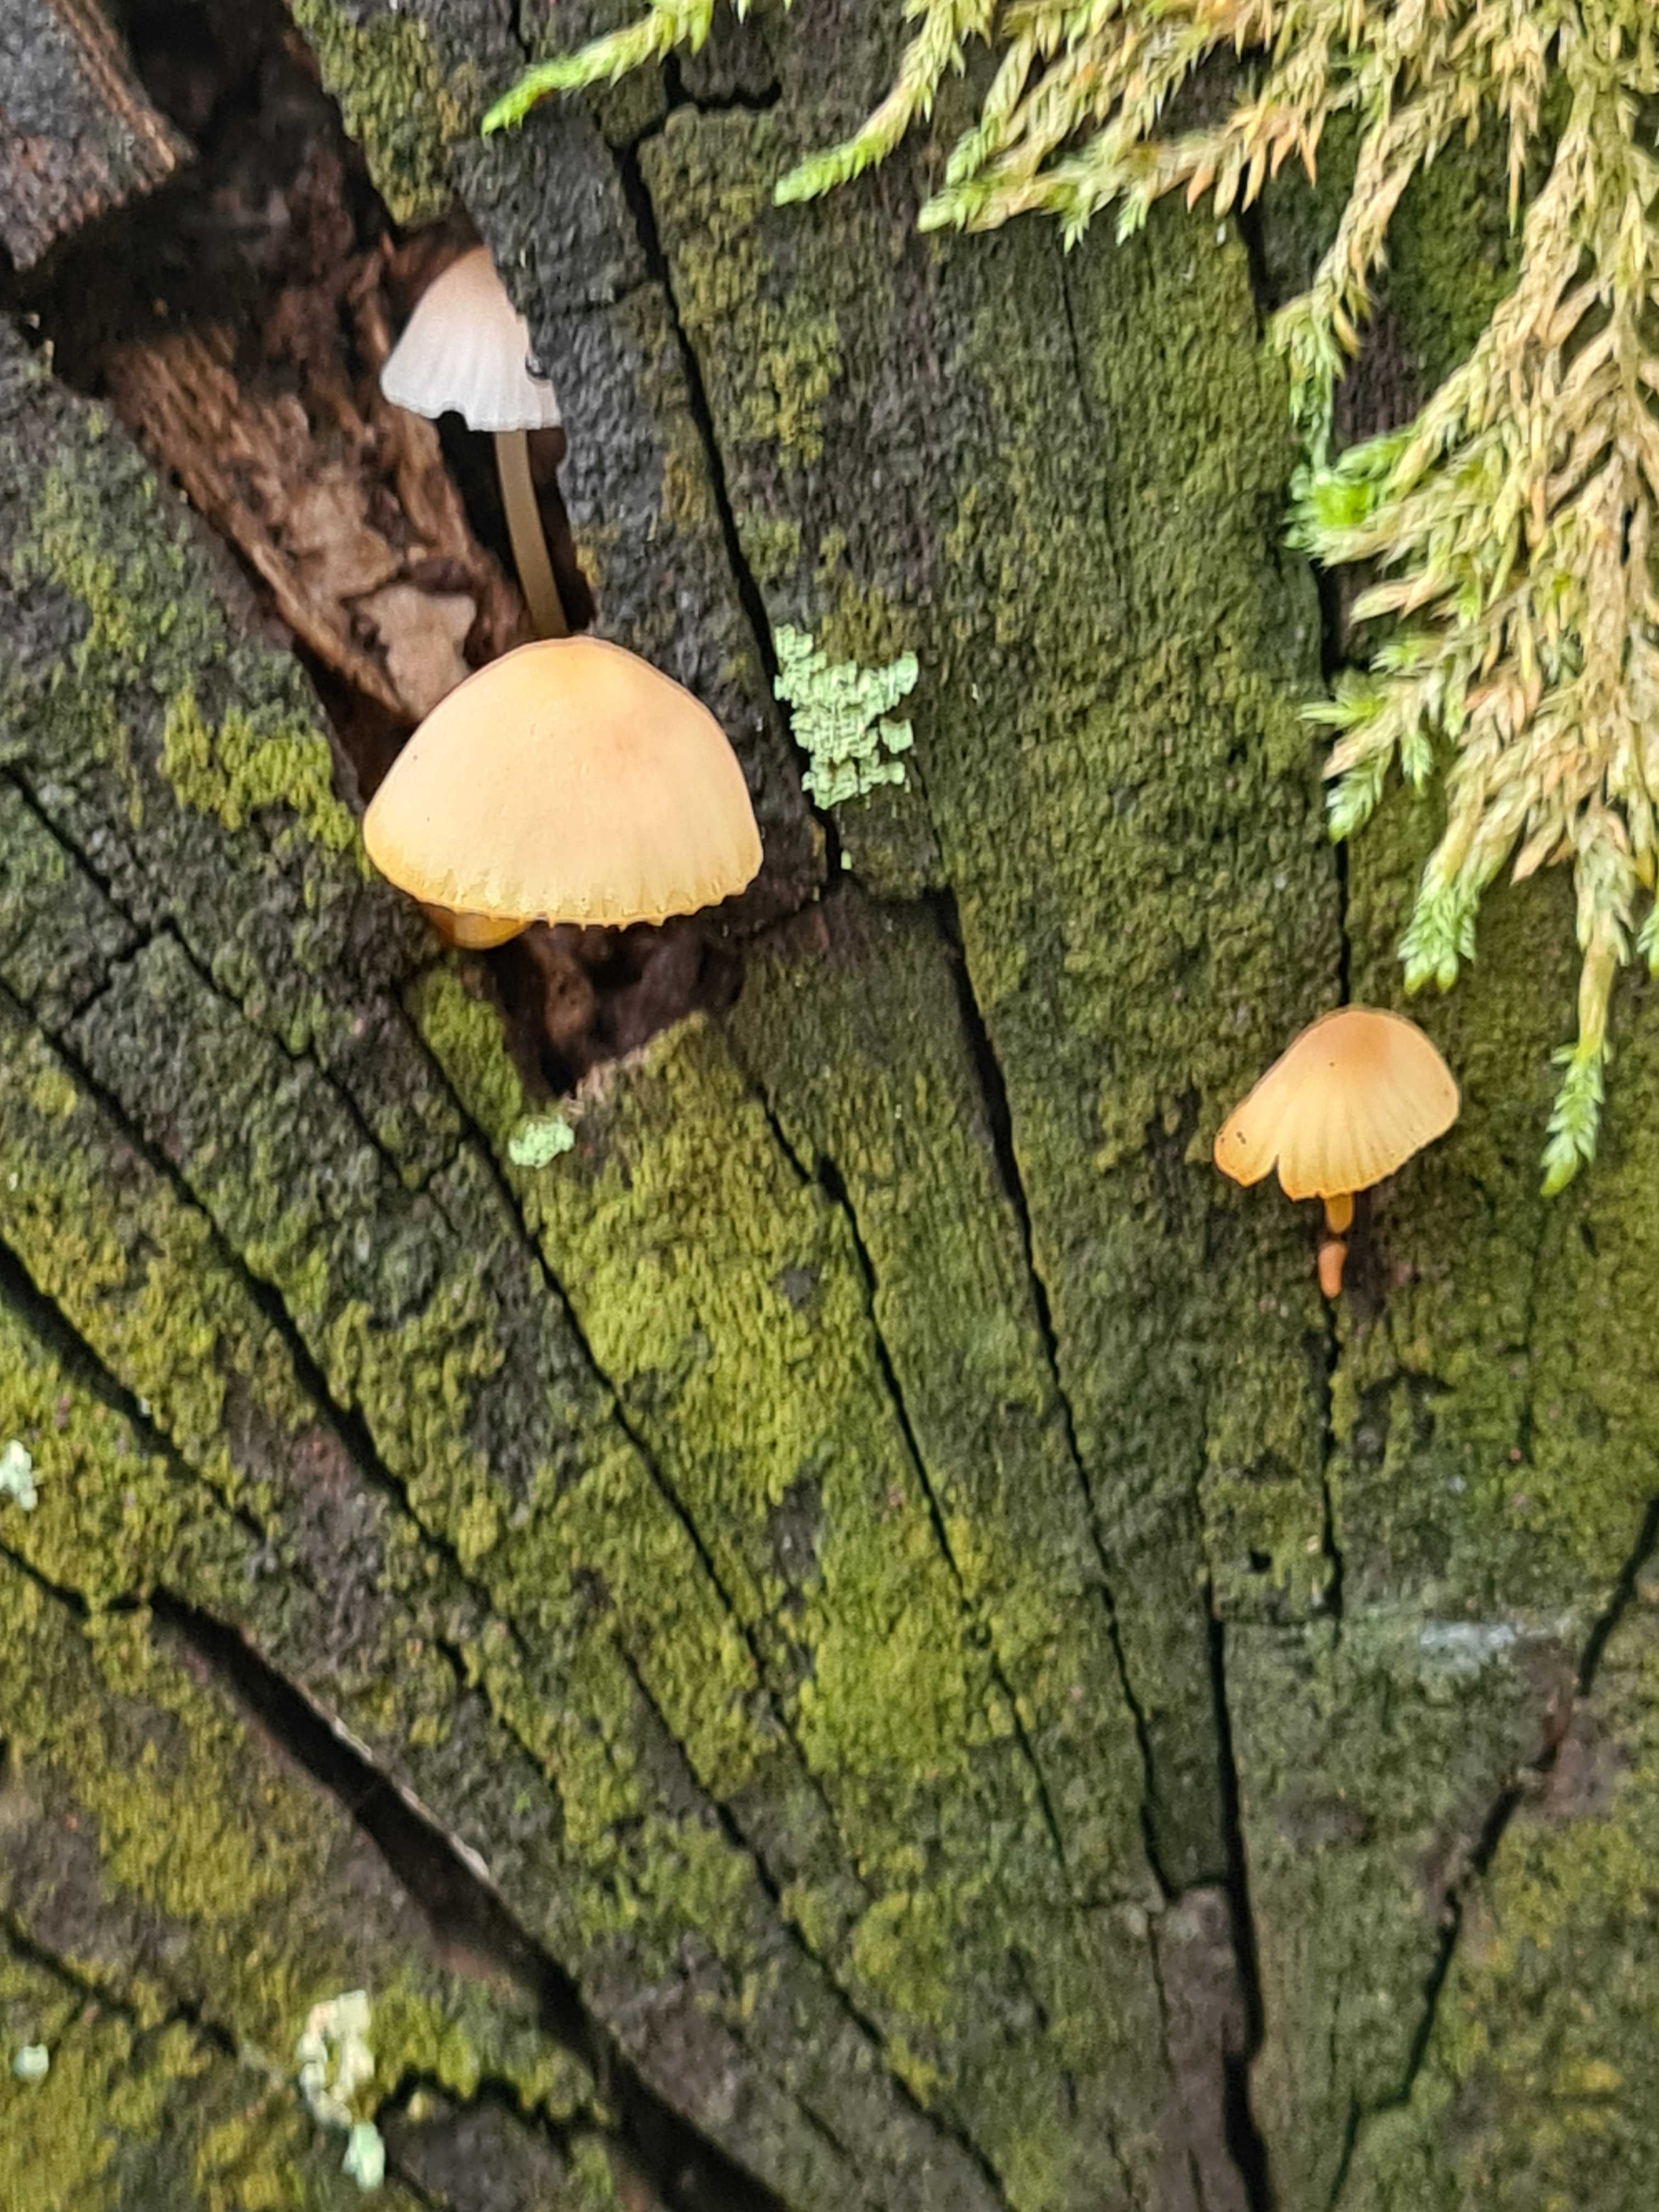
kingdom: Fungi
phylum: Basidiomycota
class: Agaricomycetes
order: Agaricales
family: Mycenaceae
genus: Mycena
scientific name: Mycena renati
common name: smuk huesvamp
